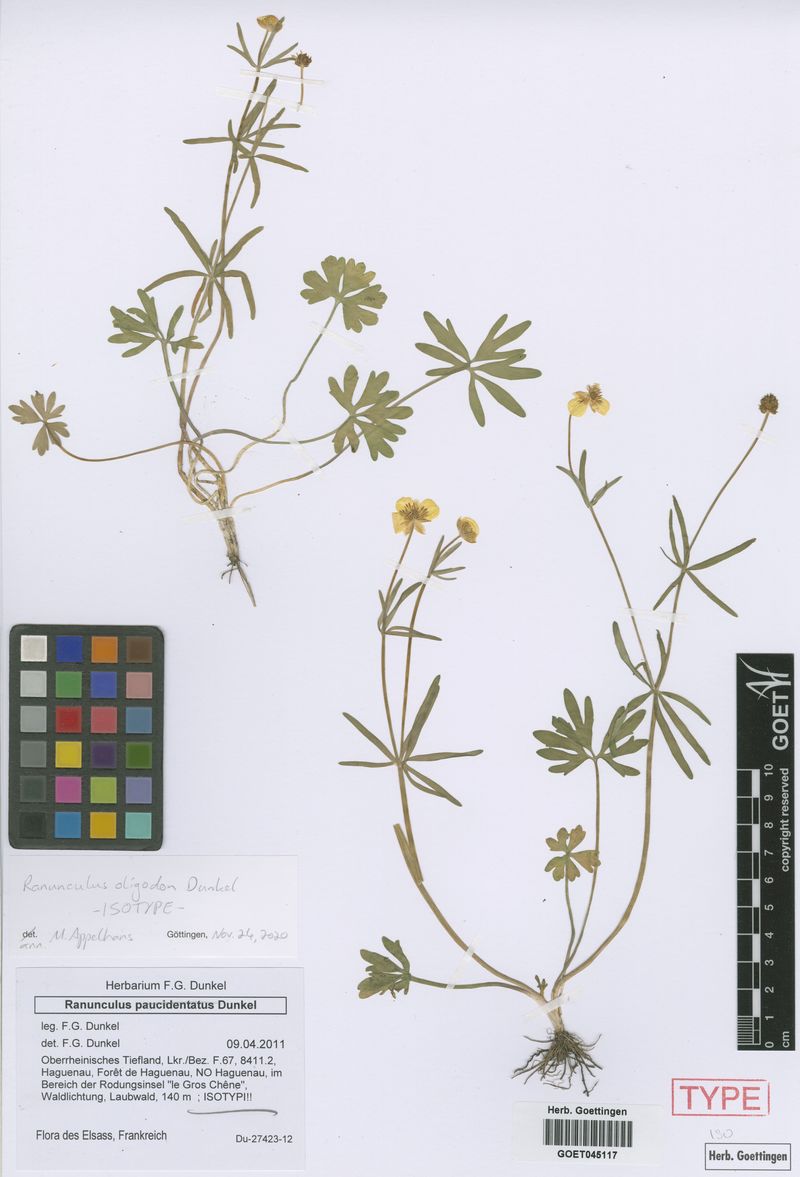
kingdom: Plantae
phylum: Tracheophyta
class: Magnoliopsida
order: Ranunculales
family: Ranunculaceae
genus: Ranunculus
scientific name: Ranunculus oligodon
